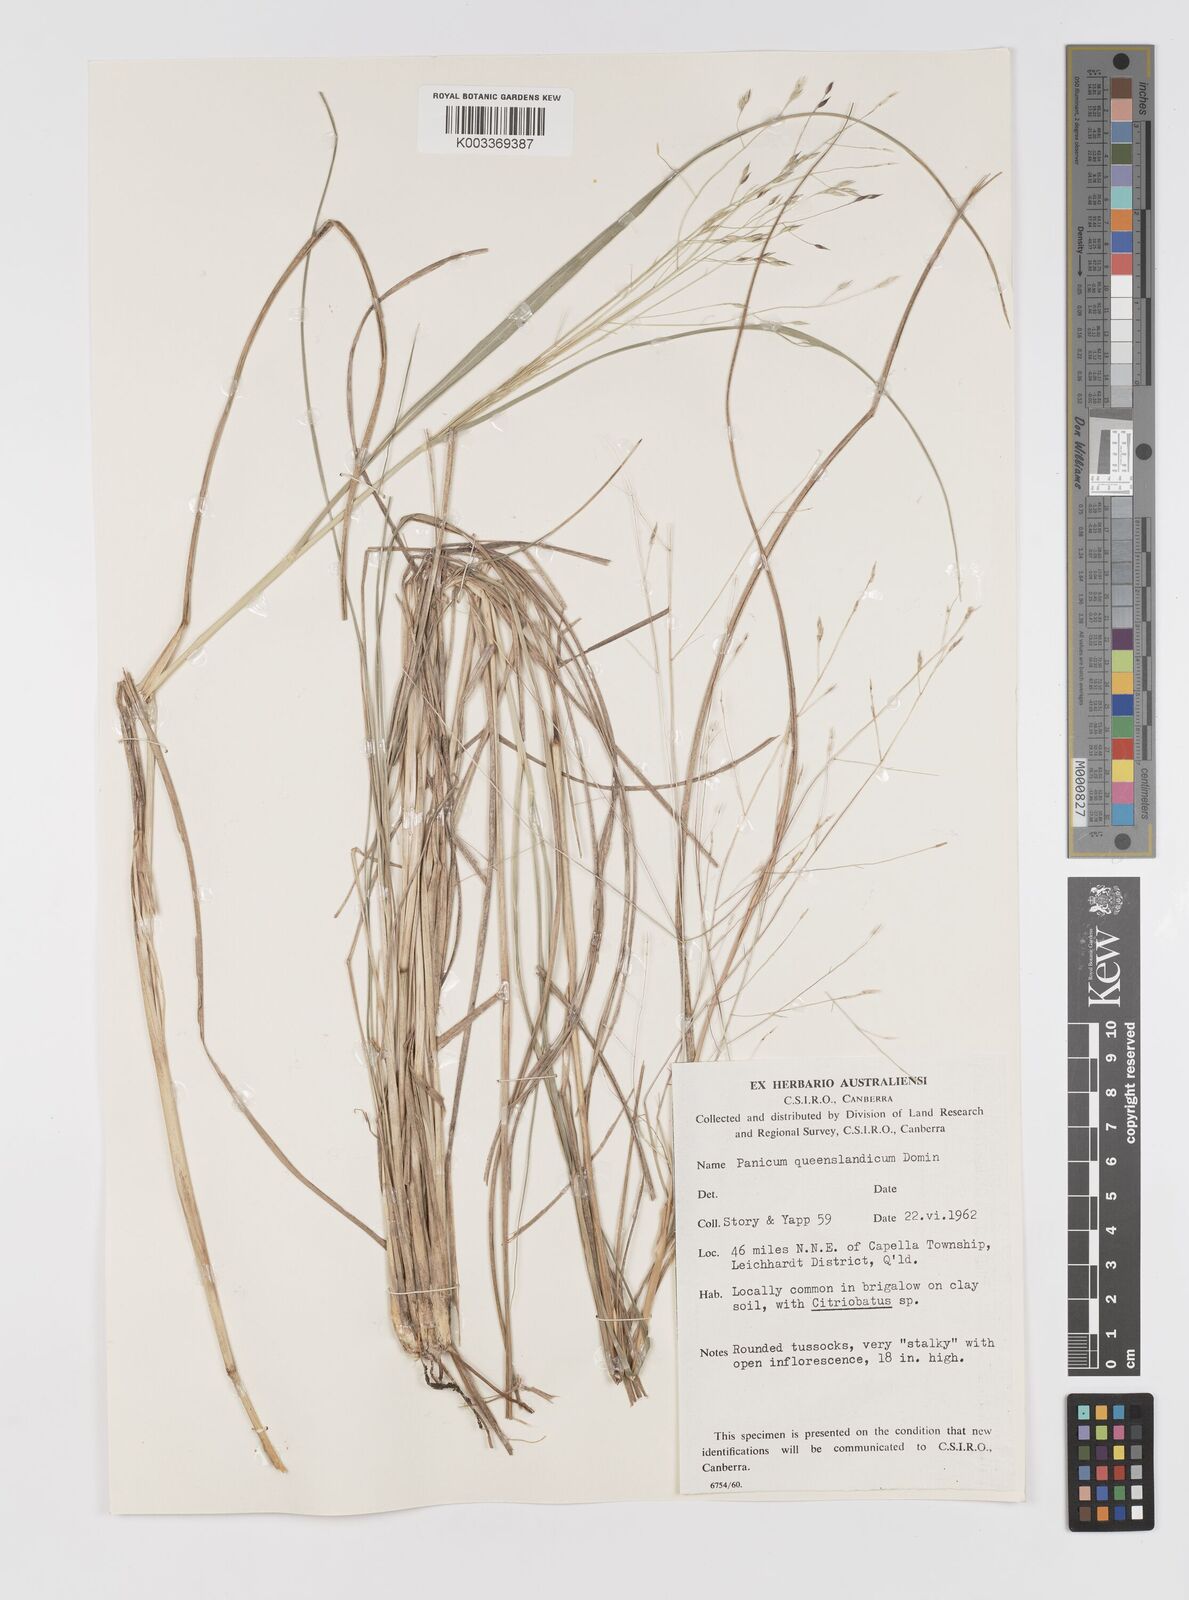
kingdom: Plantae
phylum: Tracheophyta
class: Liliopsida
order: Poales
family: Poaceae
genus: Panicum
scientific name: Panicum queenslandicum
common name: Yabila grass
